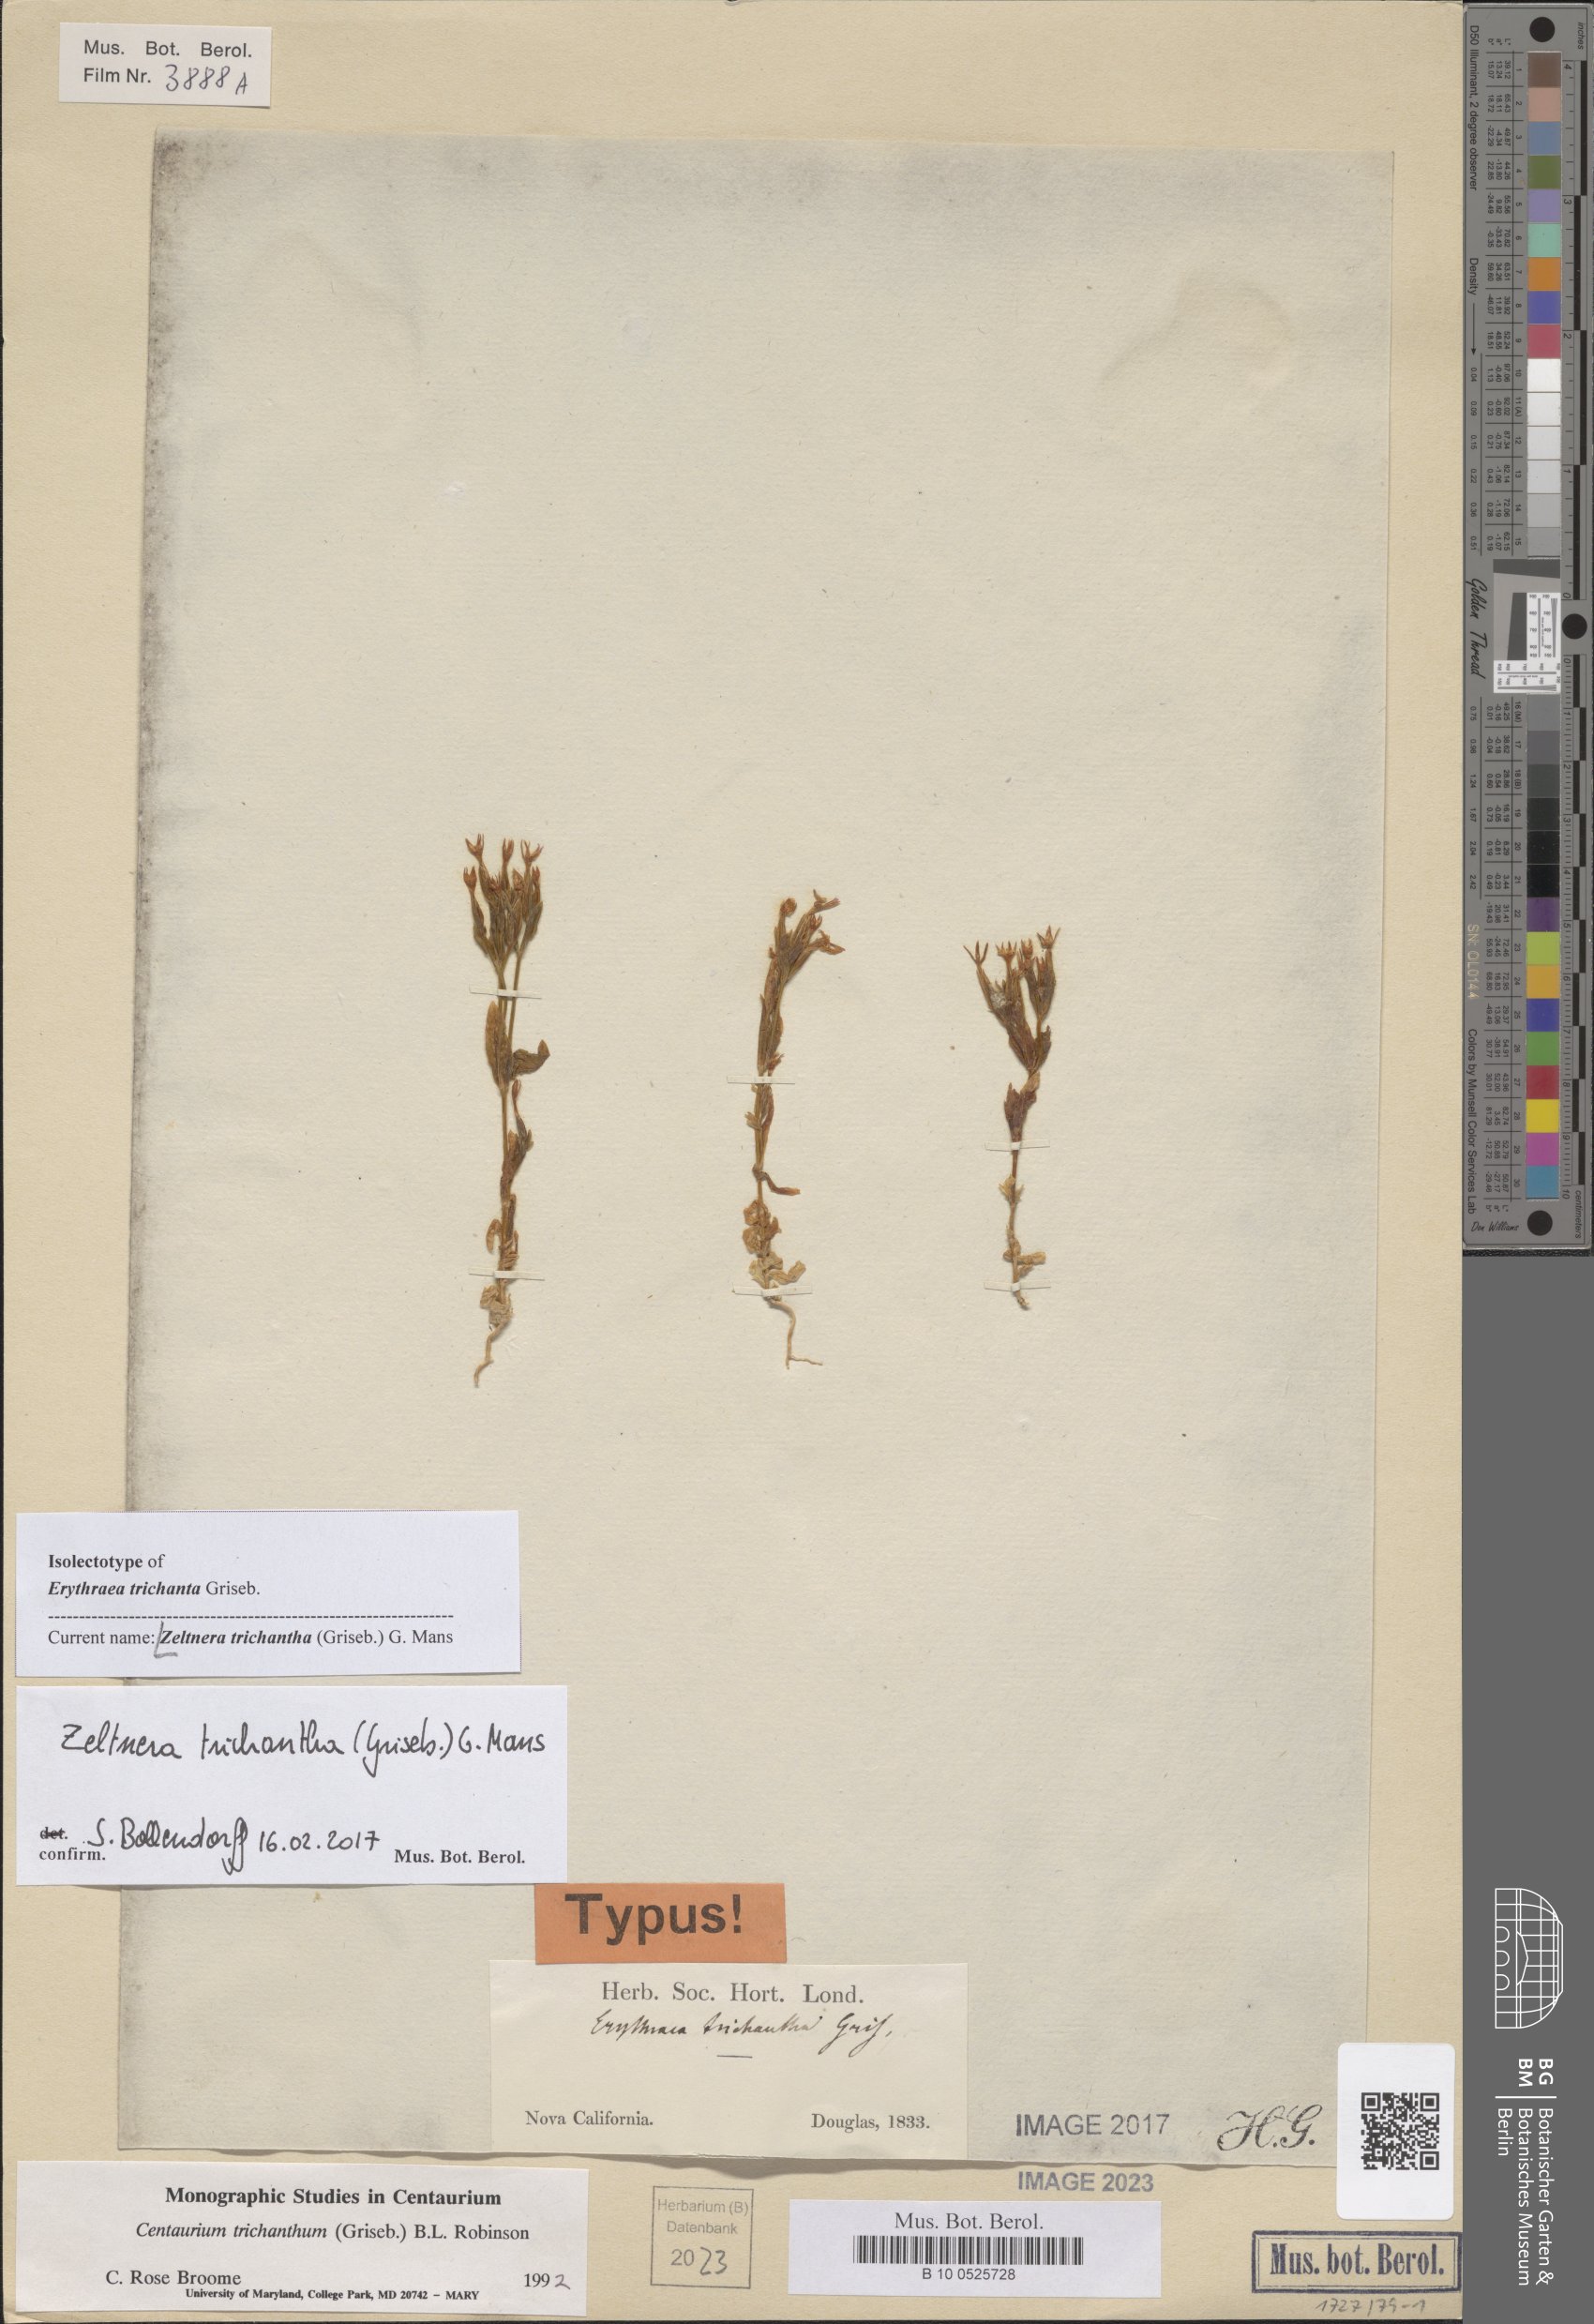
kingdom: Plantae
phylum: Tracheophyta
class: Magnoliopsida
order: Gentianales
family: Gentianaceae
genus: Zeltnera
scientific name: Zeltnera trichantha
